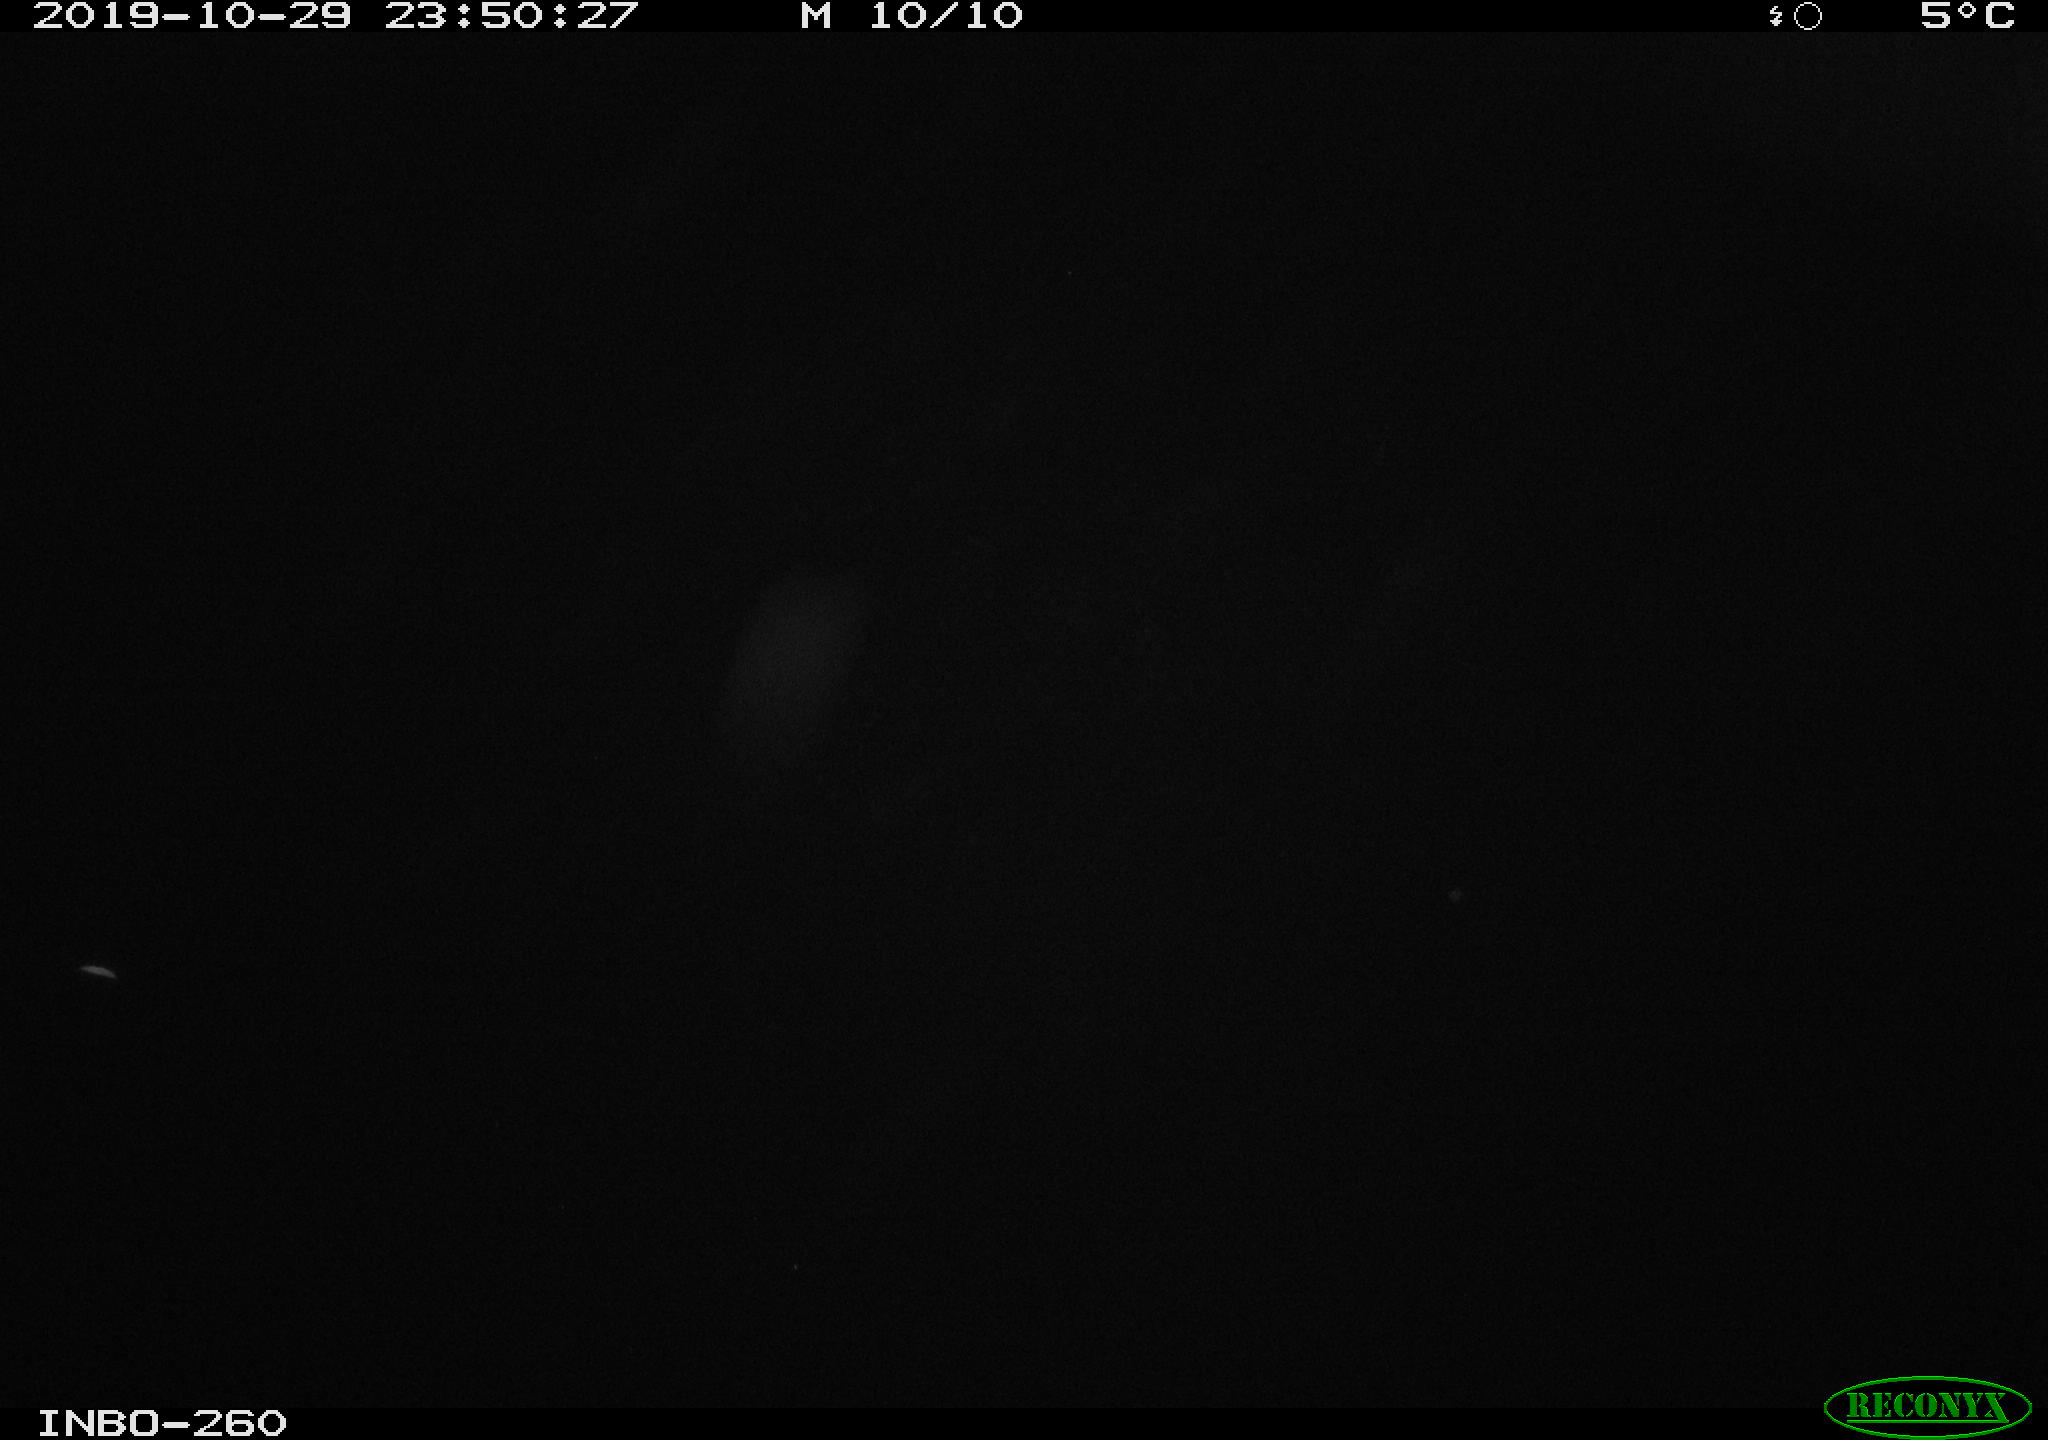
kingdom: Animalia
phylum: Chordata
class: Aves
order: Anseriformes
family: Anatidae
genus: Anas
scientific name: Anas platyrhynchos
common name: Mallard
